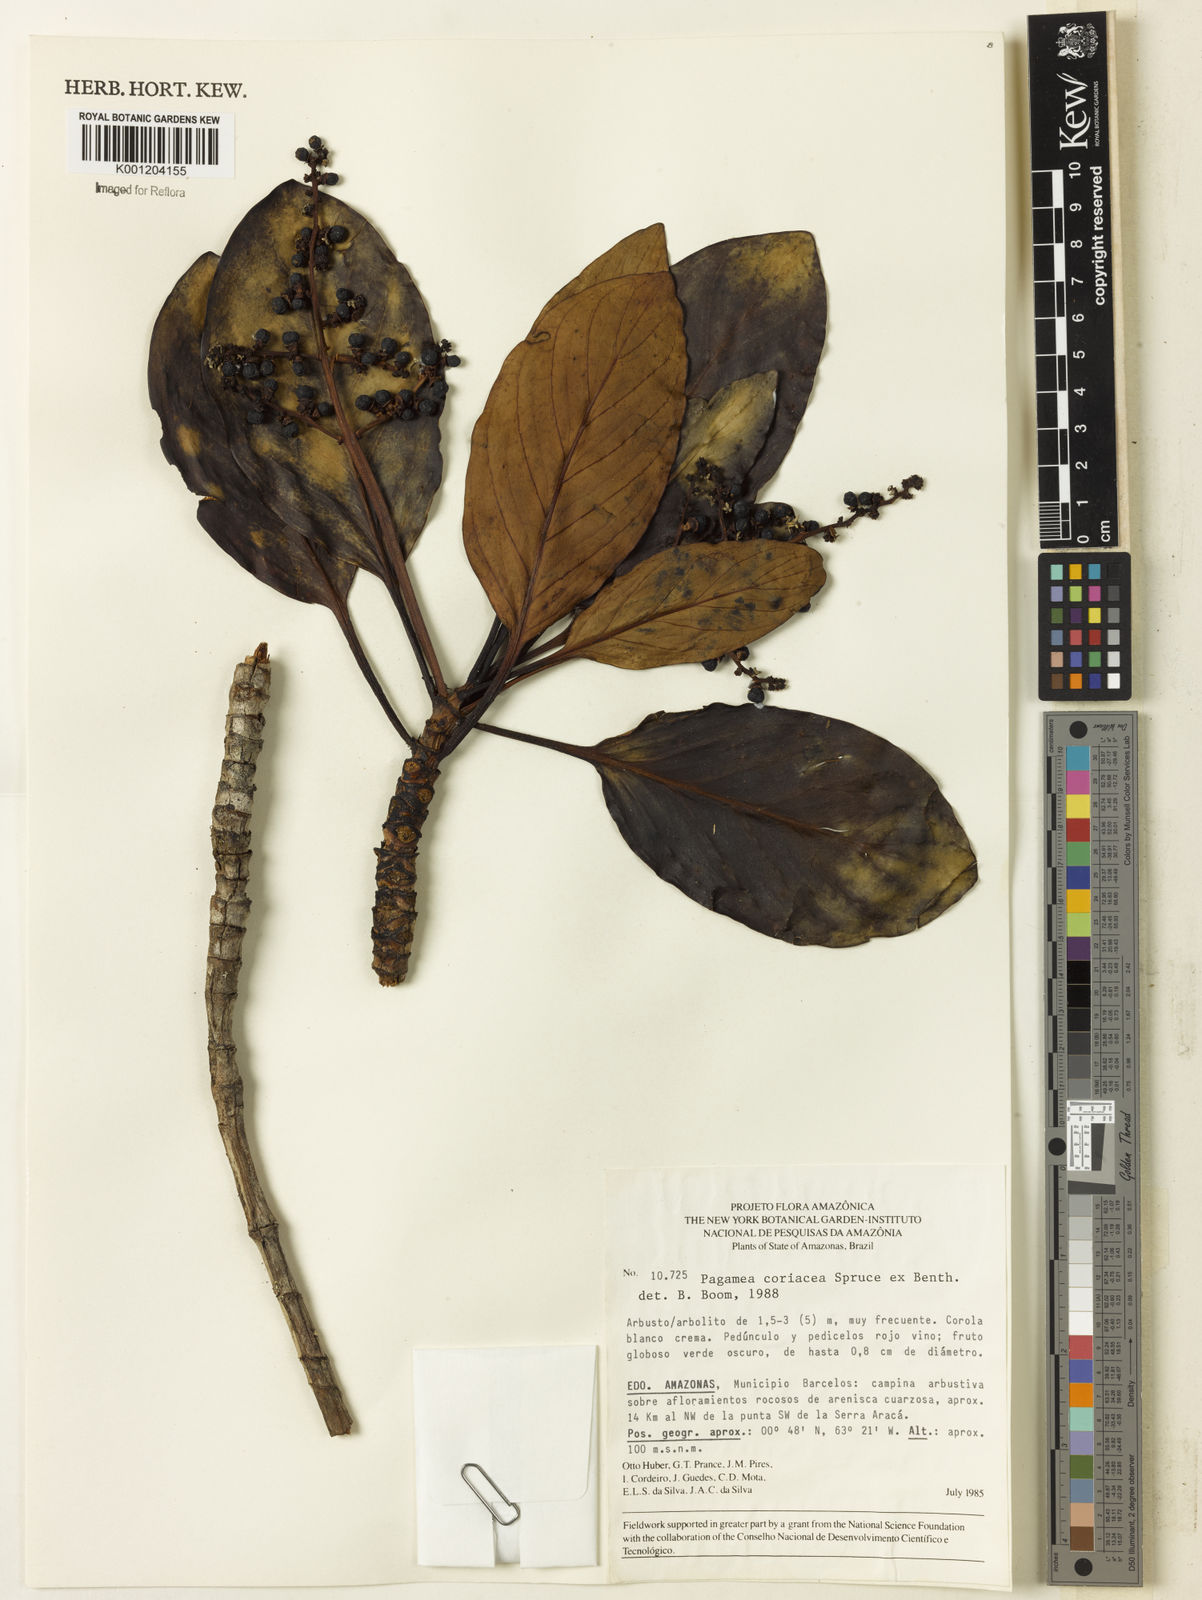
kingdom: Plantae
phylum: Tracheophyta
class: Magnoliopsida
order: Gentianales
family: Rubiaceae
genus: Pagamea
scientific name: Pagamea coriacea
